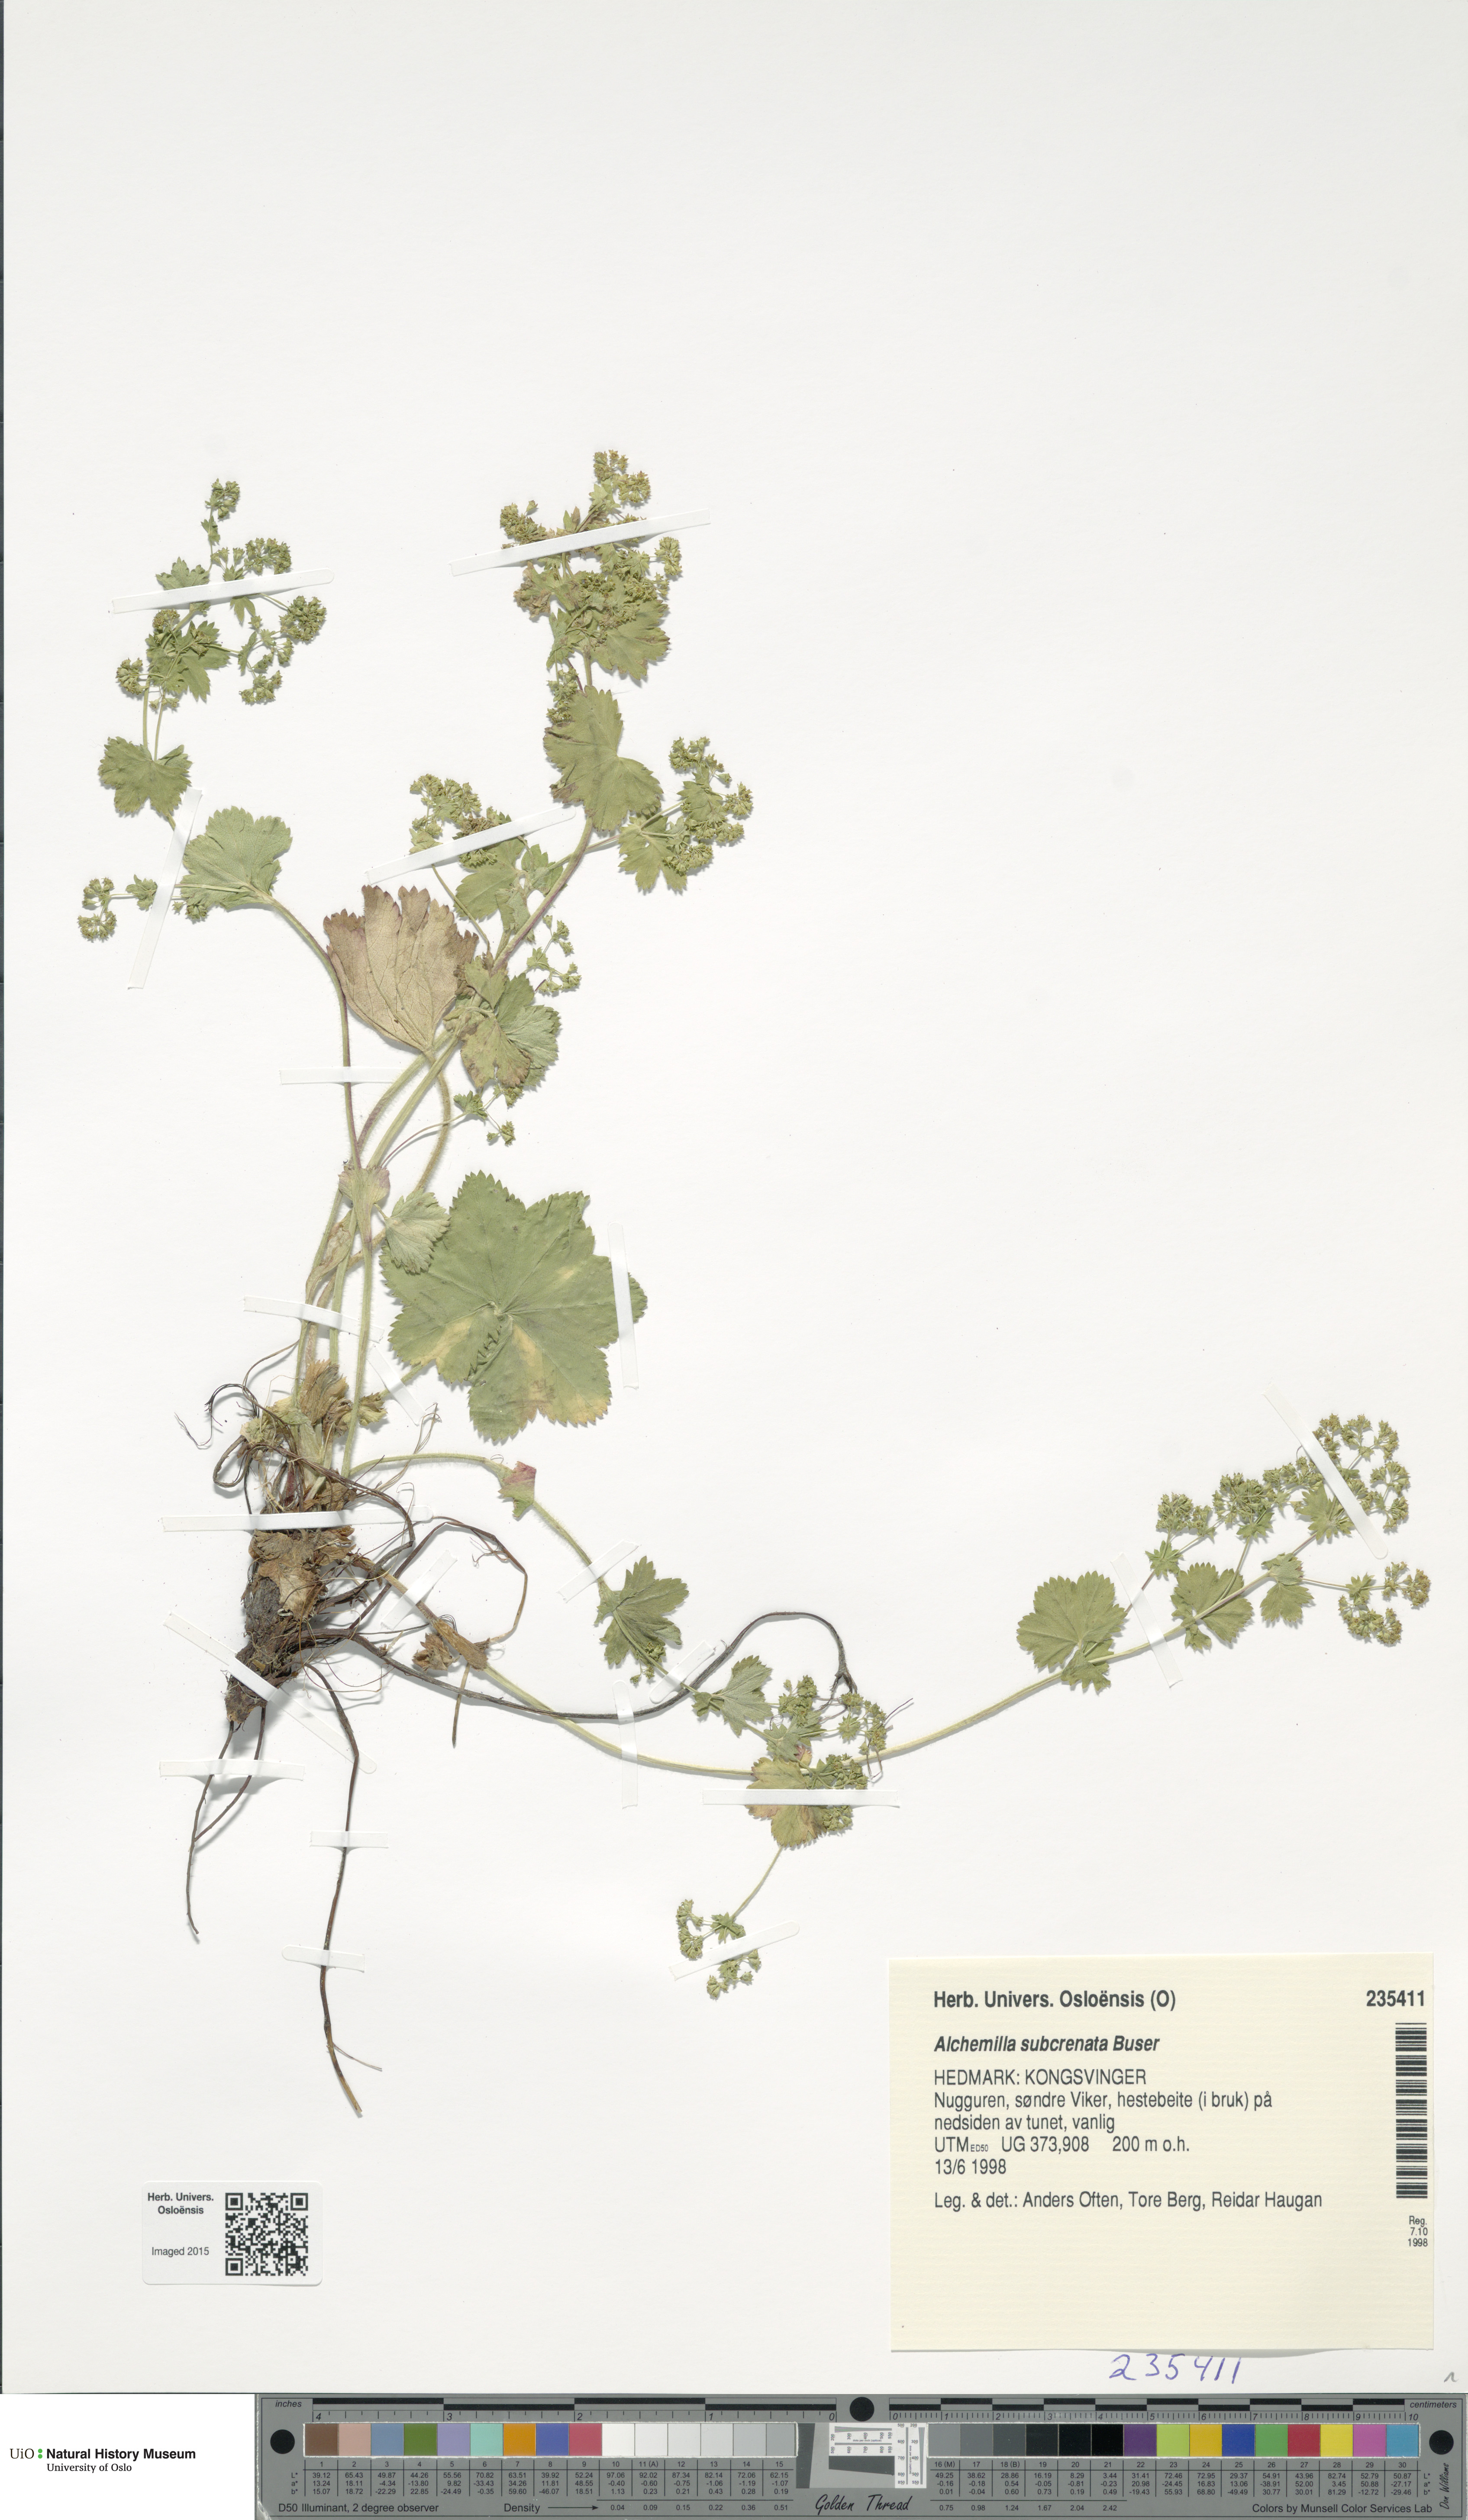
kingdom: Plantae
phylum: Tracheophyta
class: Magnoliopsida
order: Rosales
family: Rosaceae
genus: Alchemilla
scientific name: Alchemilla subcrenata
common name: Broadtooth lady's mantle
